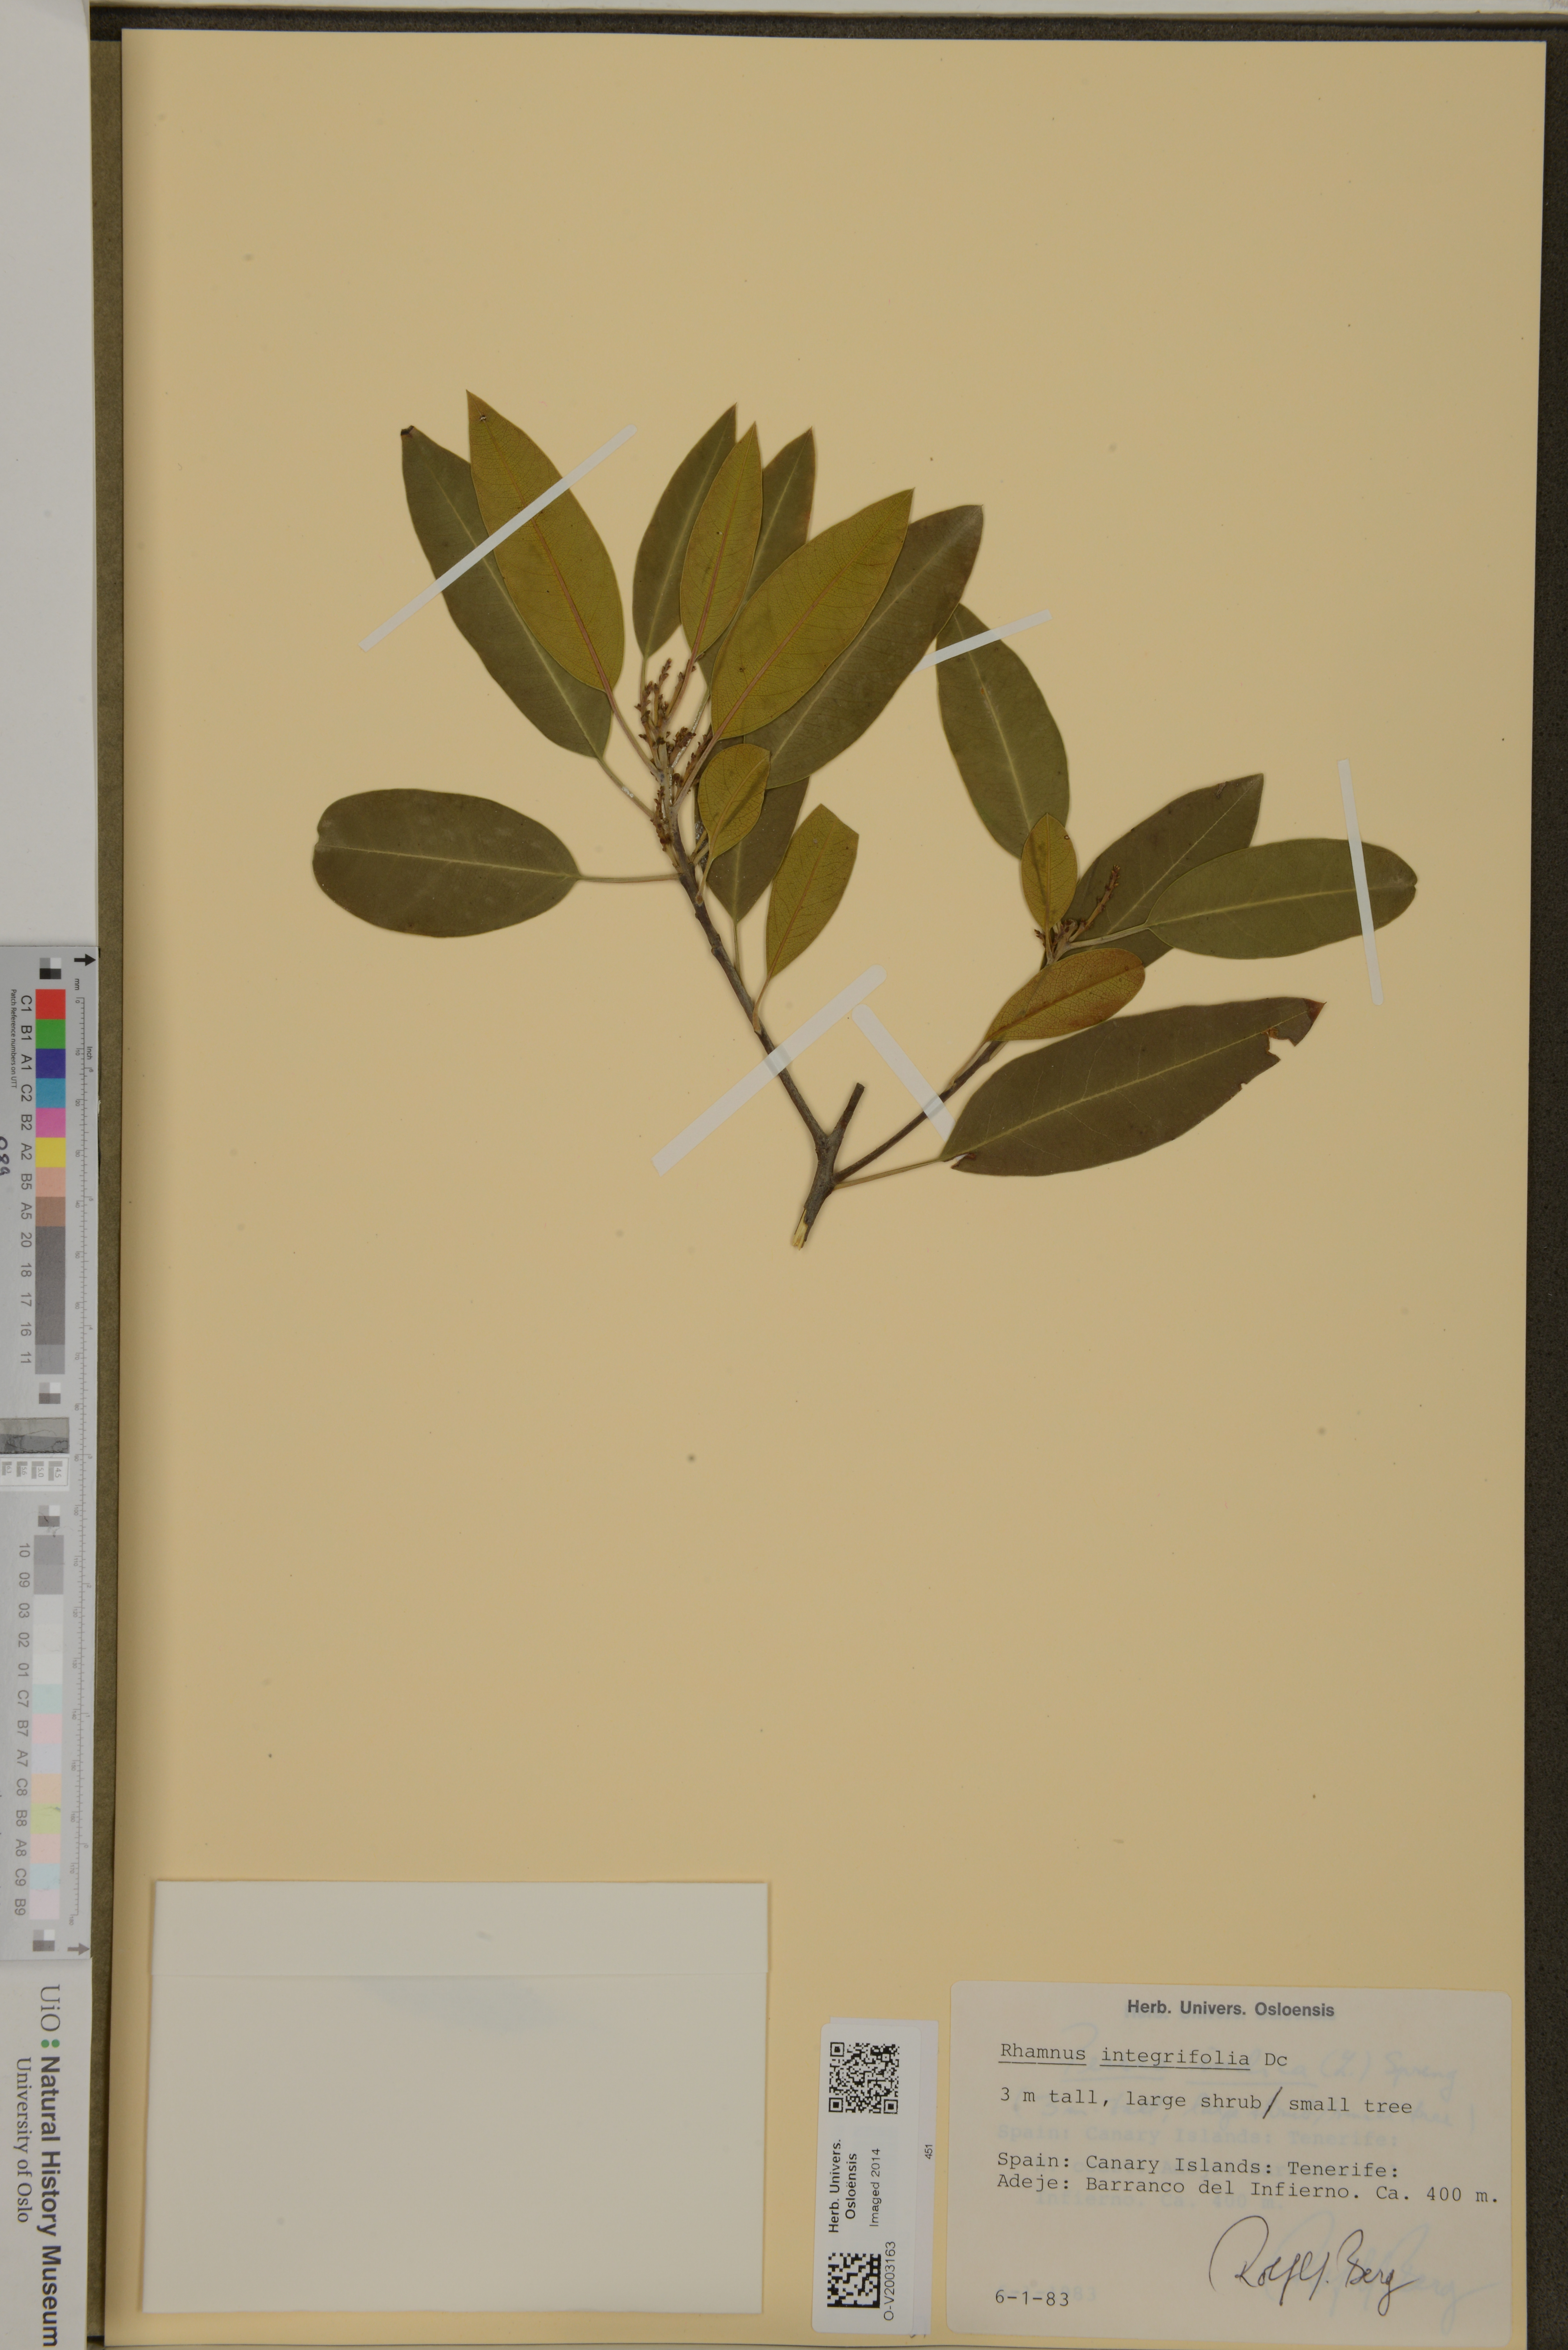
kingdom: Plantae
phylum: Tracheophyta
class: Magnoliopsida
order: Rosales
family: Rhamnaceae
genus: Rhamnus
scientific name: Rhamnus integrifolia
